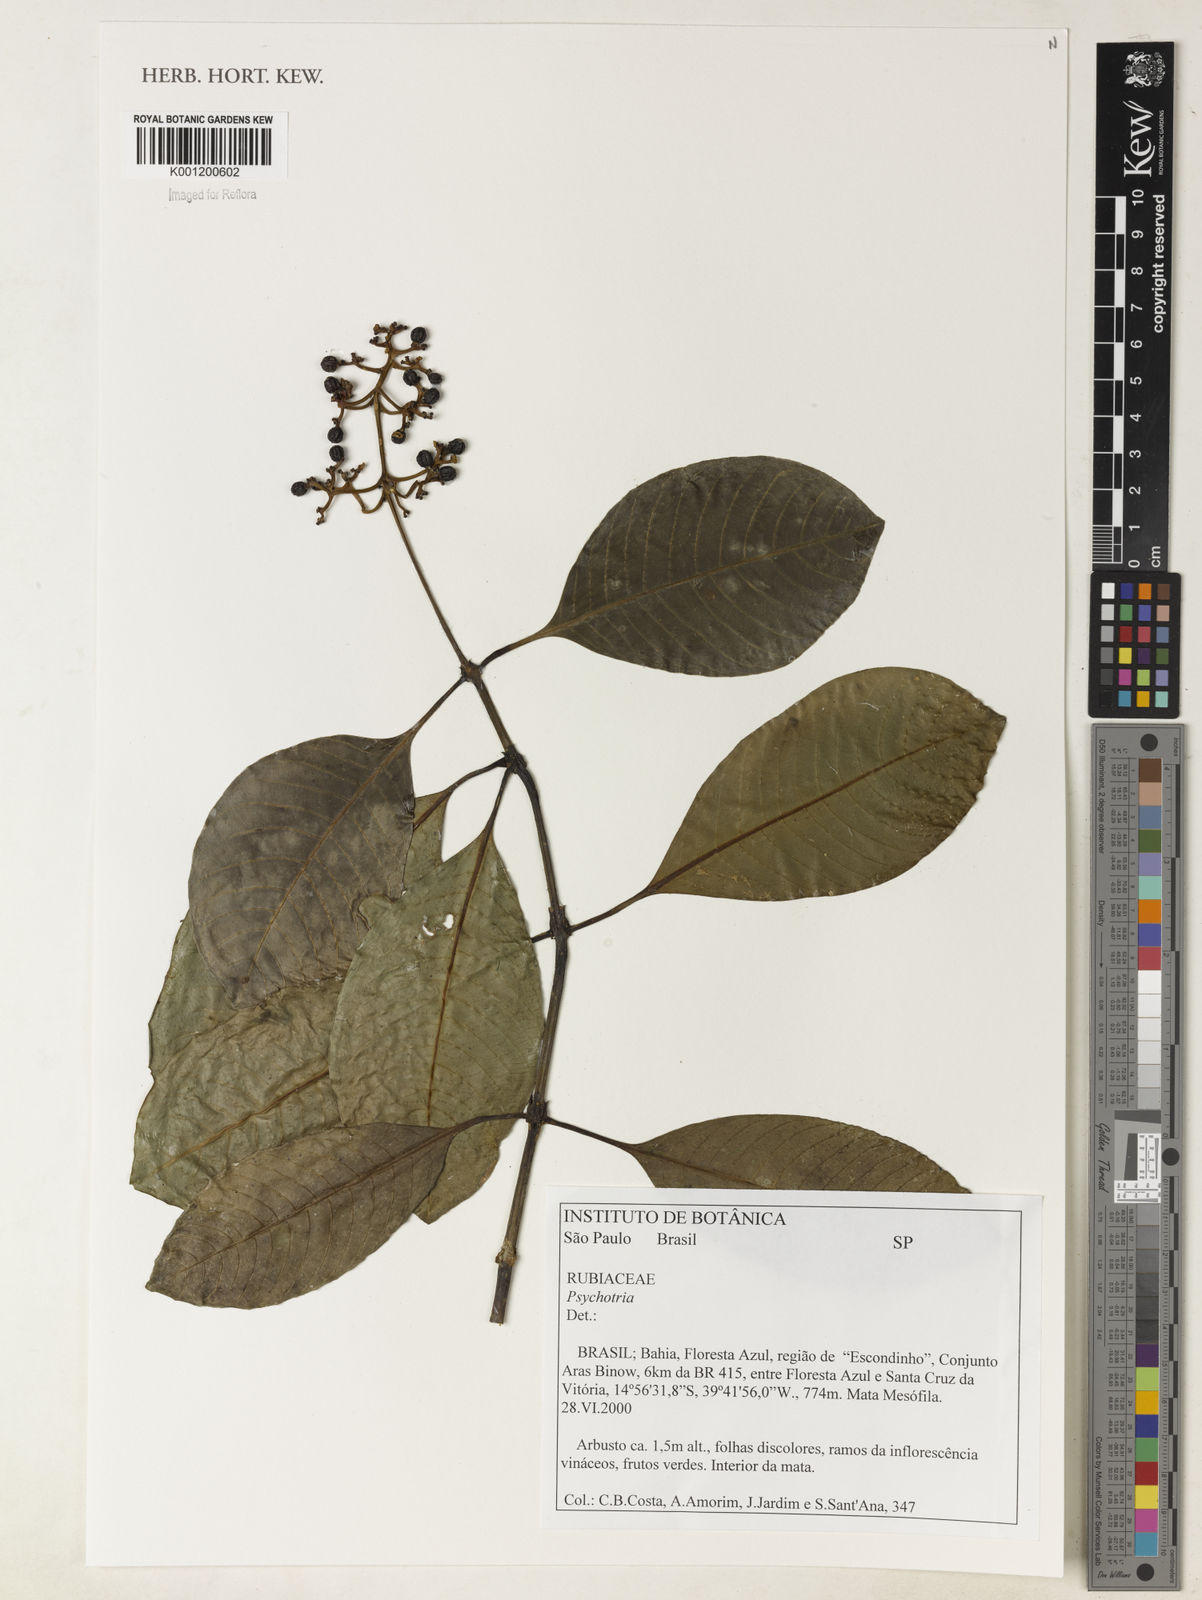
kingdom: Plantae
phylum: Tracheophyta
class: Magnoliopsida
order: Gentianales
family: Rubiaceae
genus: Psychotria
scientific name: Psychotria
